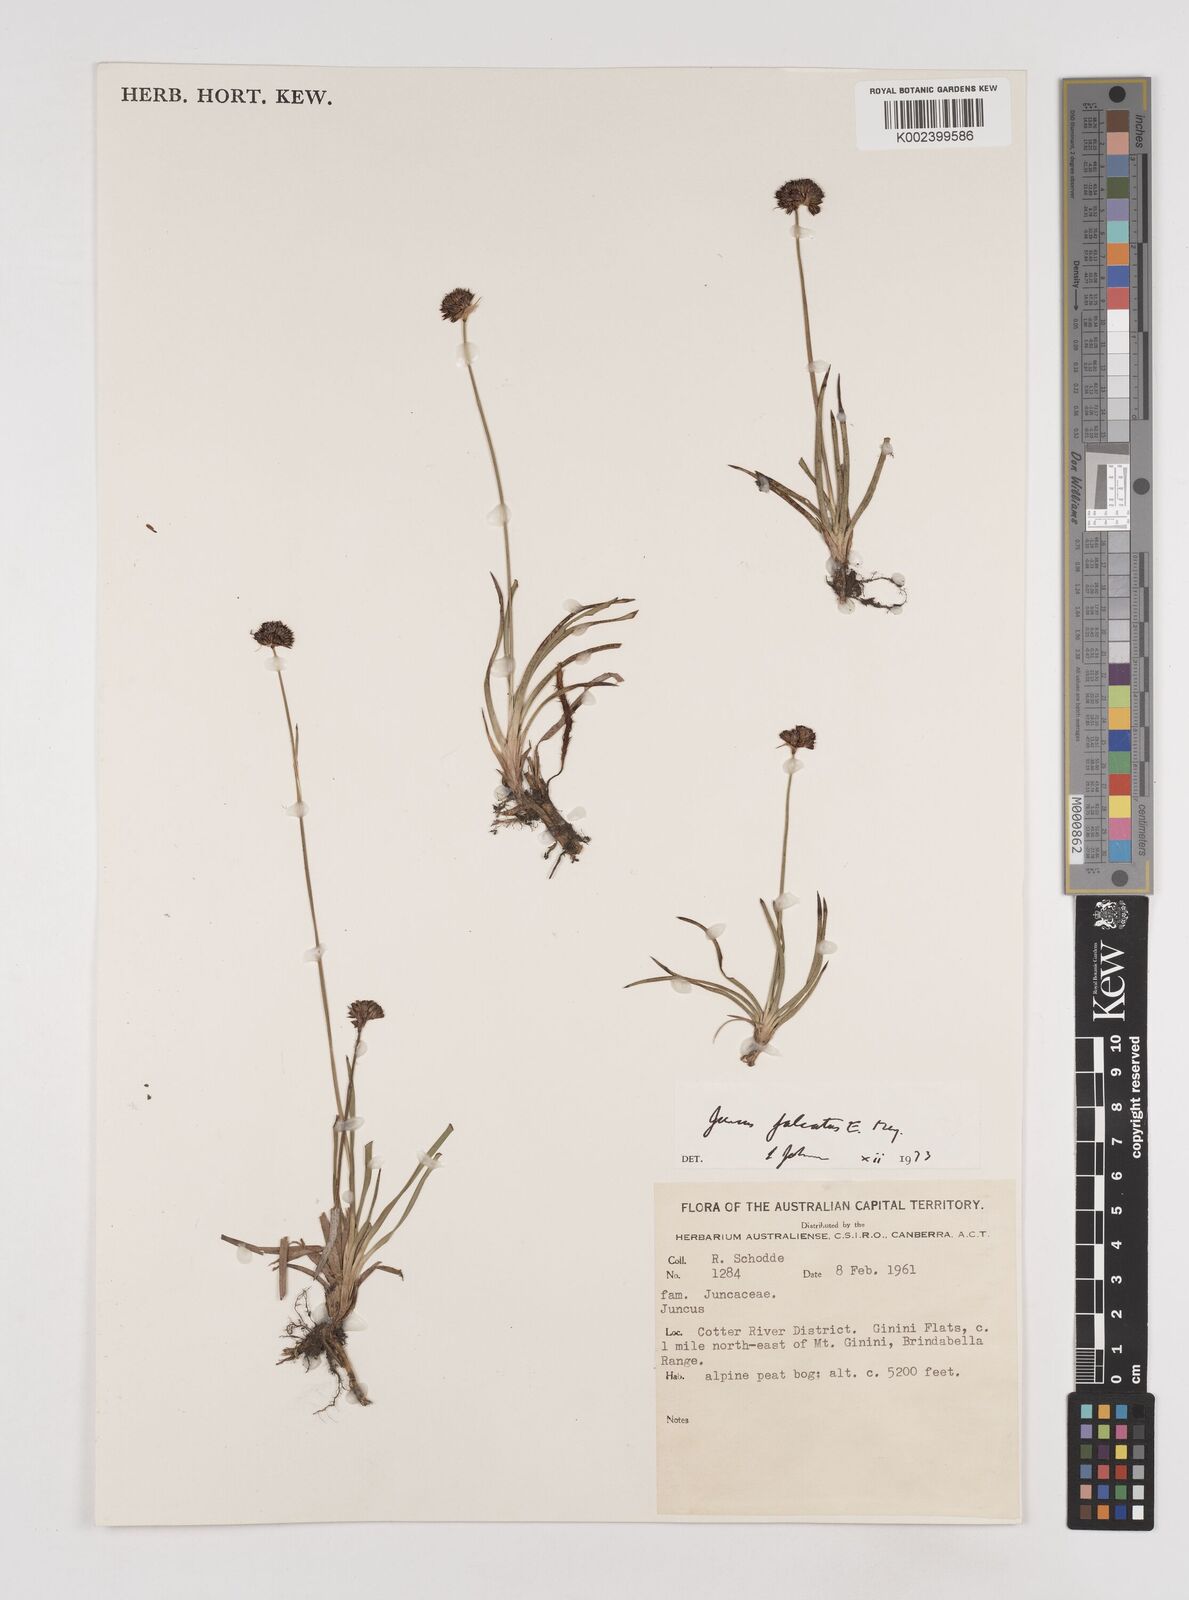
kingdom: Plantae
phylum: Tracheophyta
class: Liliopsida
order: Poales
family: Juncaceae
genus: Juncus
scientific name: Juncus falcatus
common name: Sickle-leaf rush
